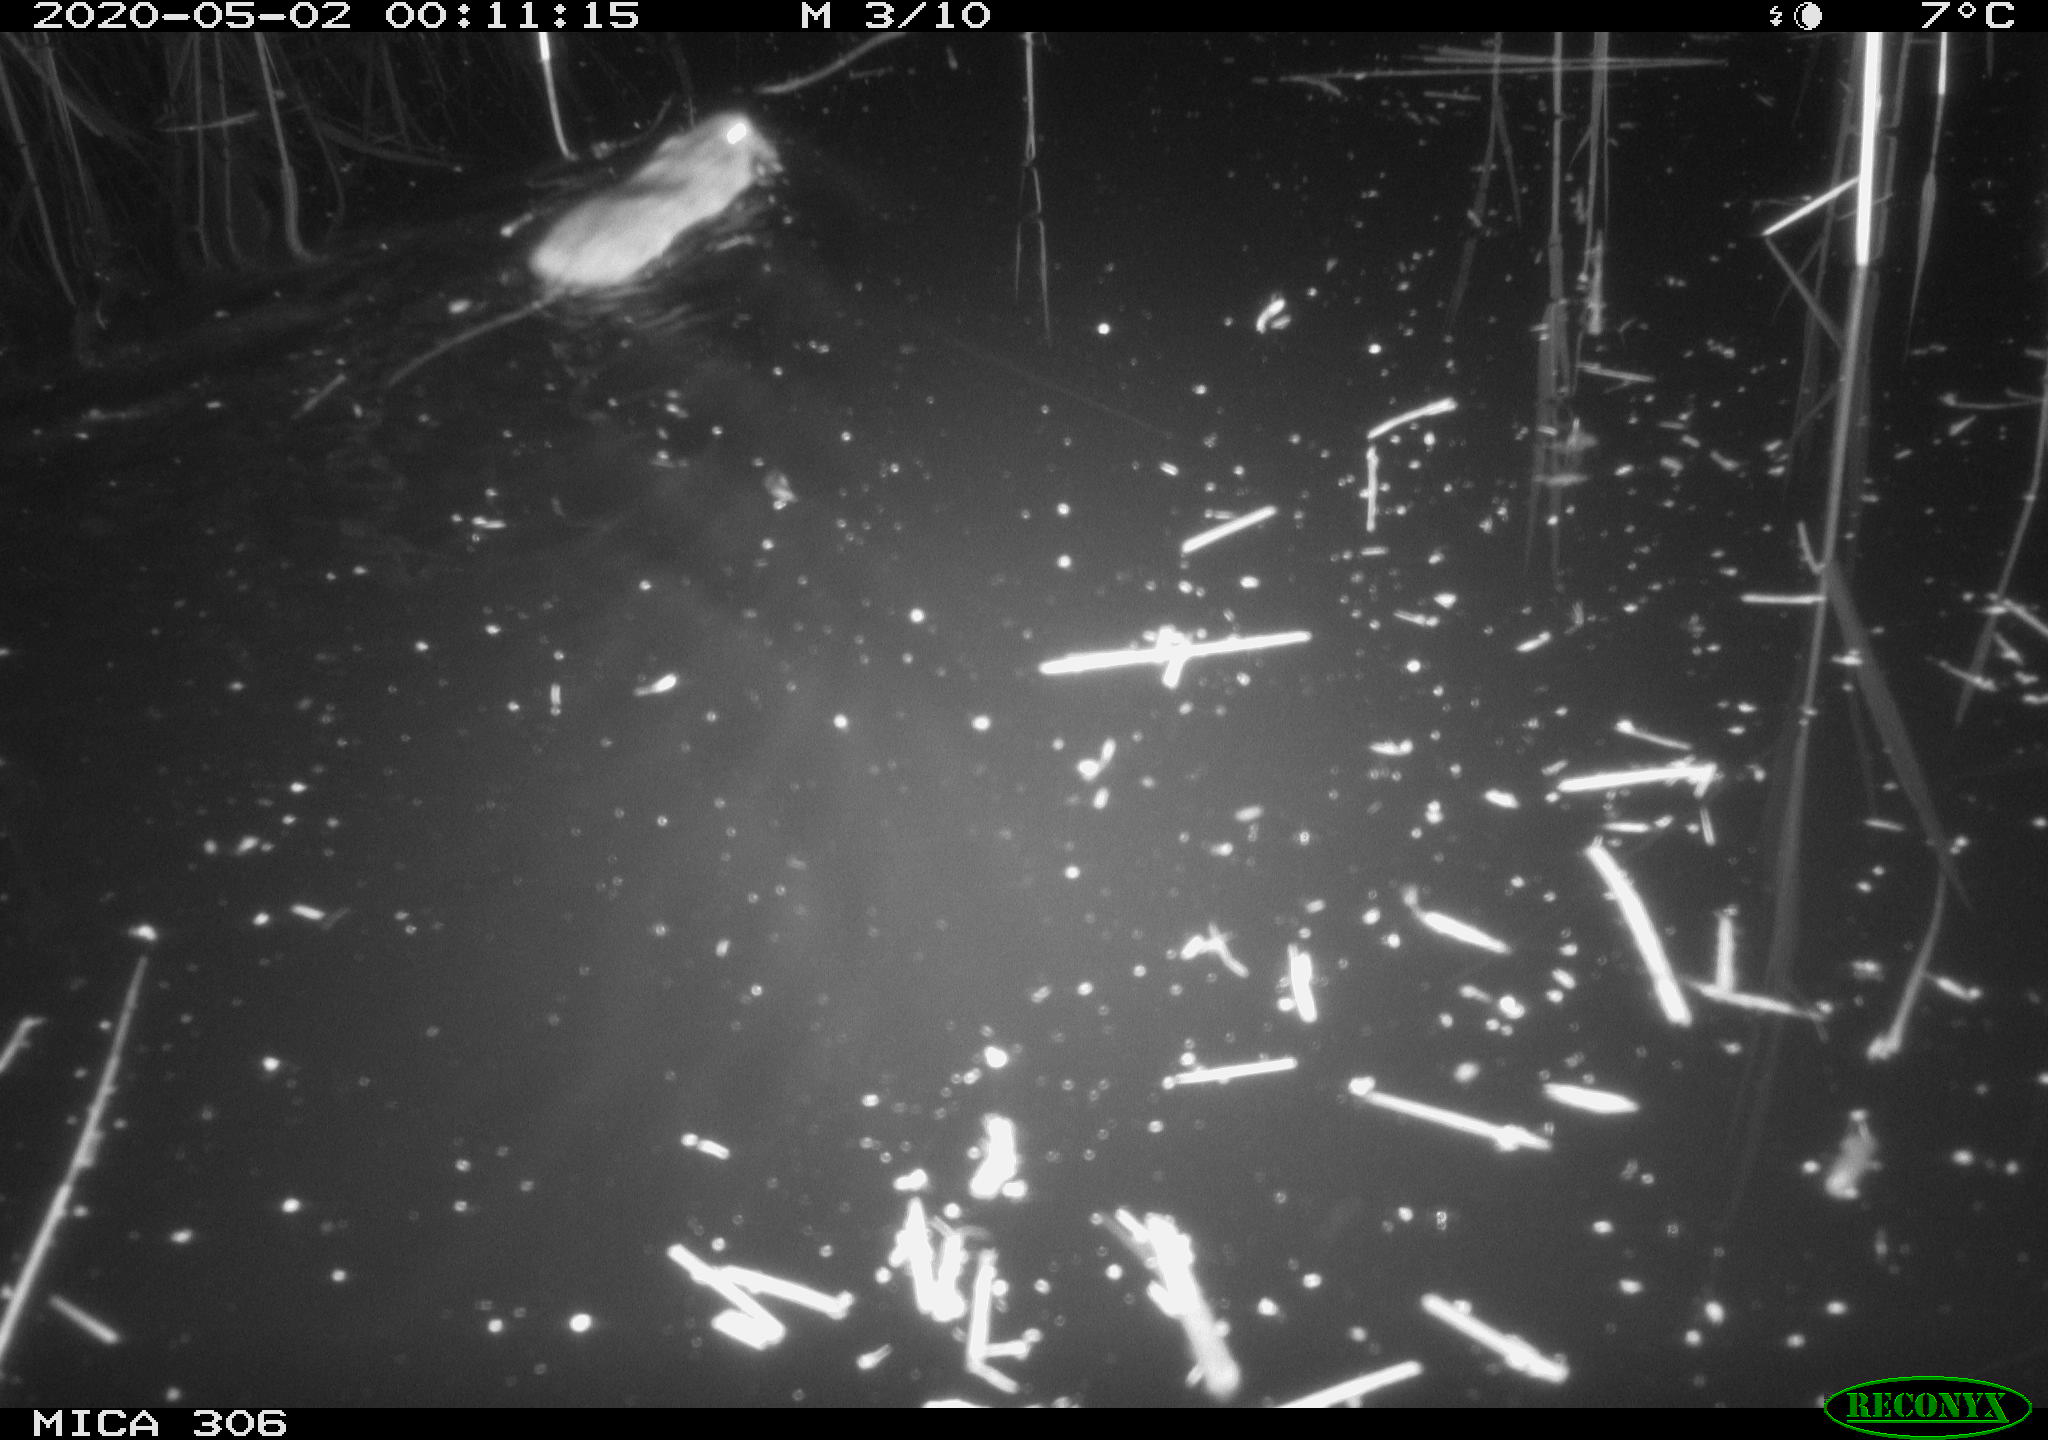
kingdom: Animalia
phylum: Chordata
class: Mammalia
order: Rodentia
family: Cricetidae
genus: Ondatra
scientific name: Ondatra zibethicus
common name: Muskrat
